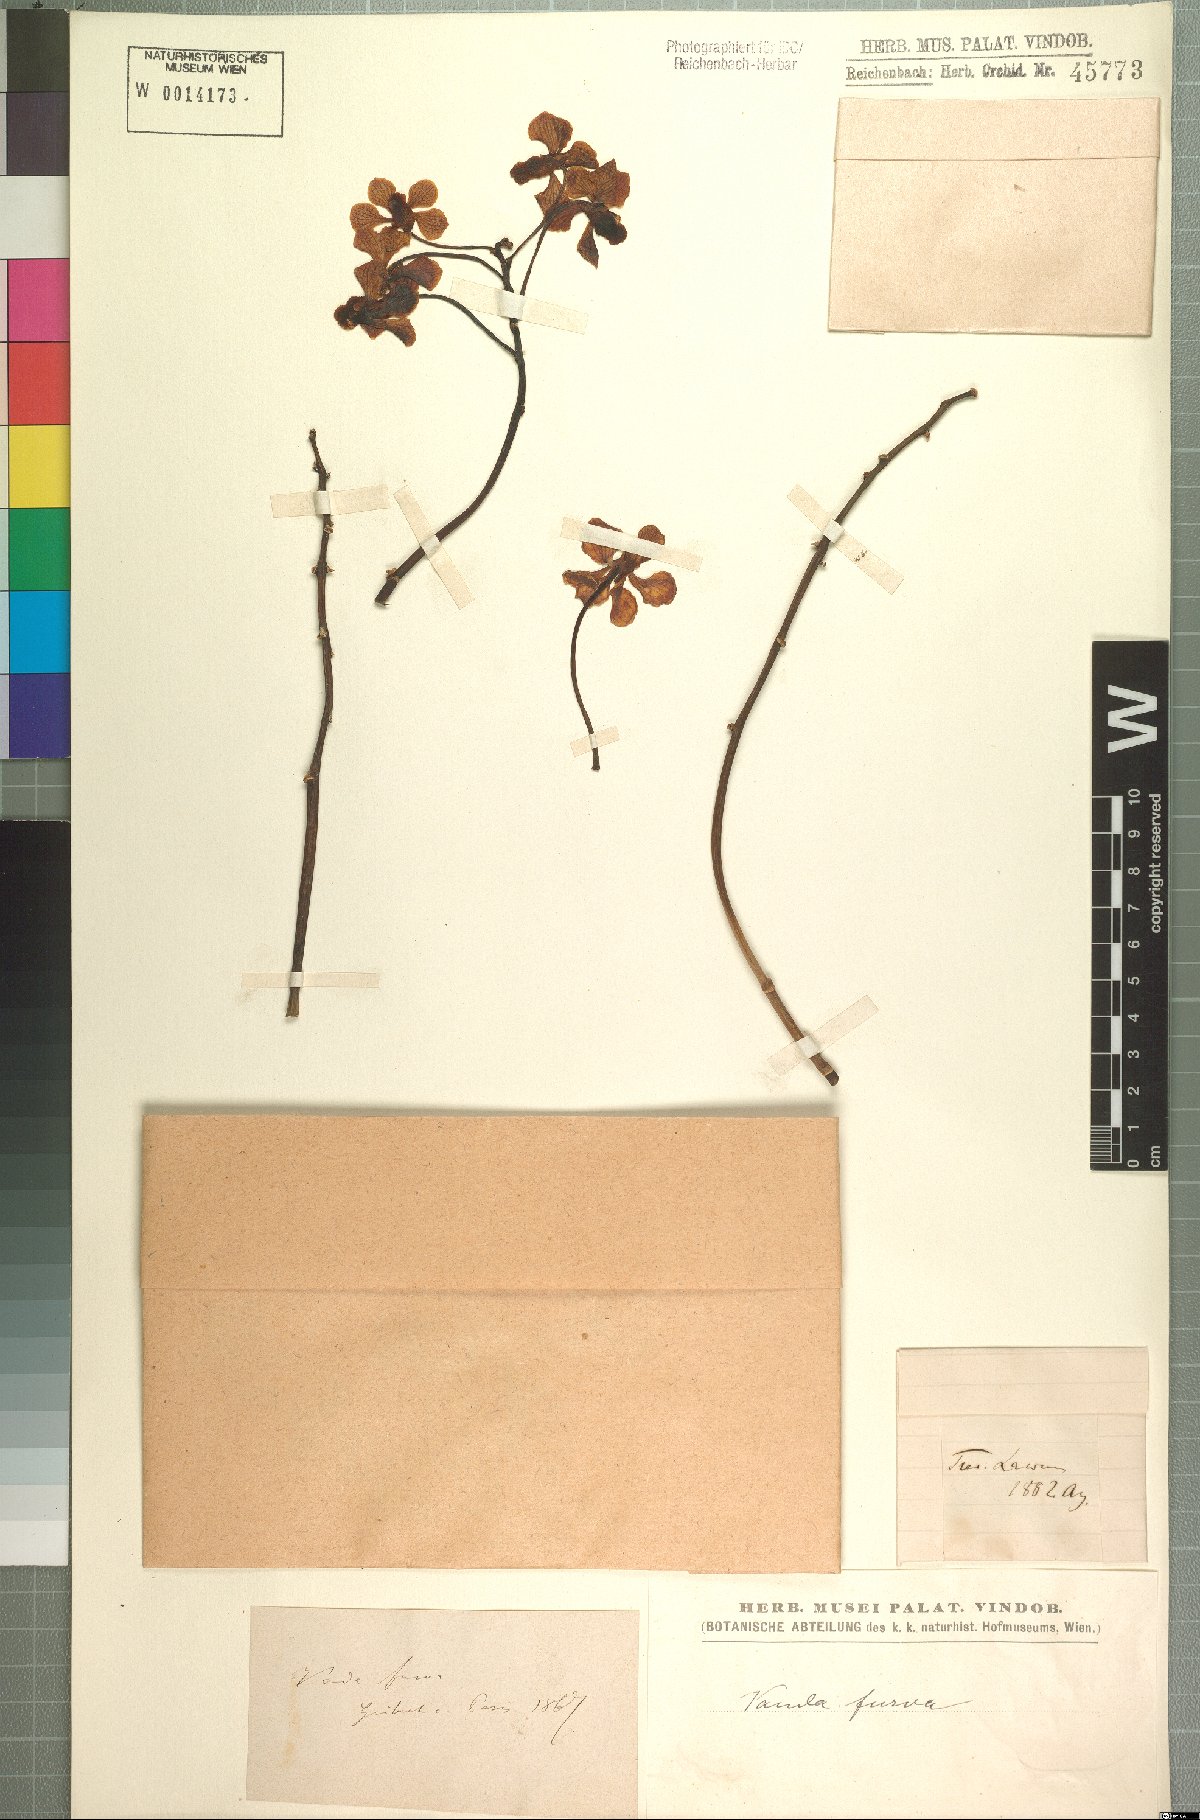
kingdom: Plantae
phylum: Tracheophyta
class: Liliopsida
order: Asparagales
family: Orchidaceae
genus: Vanda
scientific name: Vanda furva
